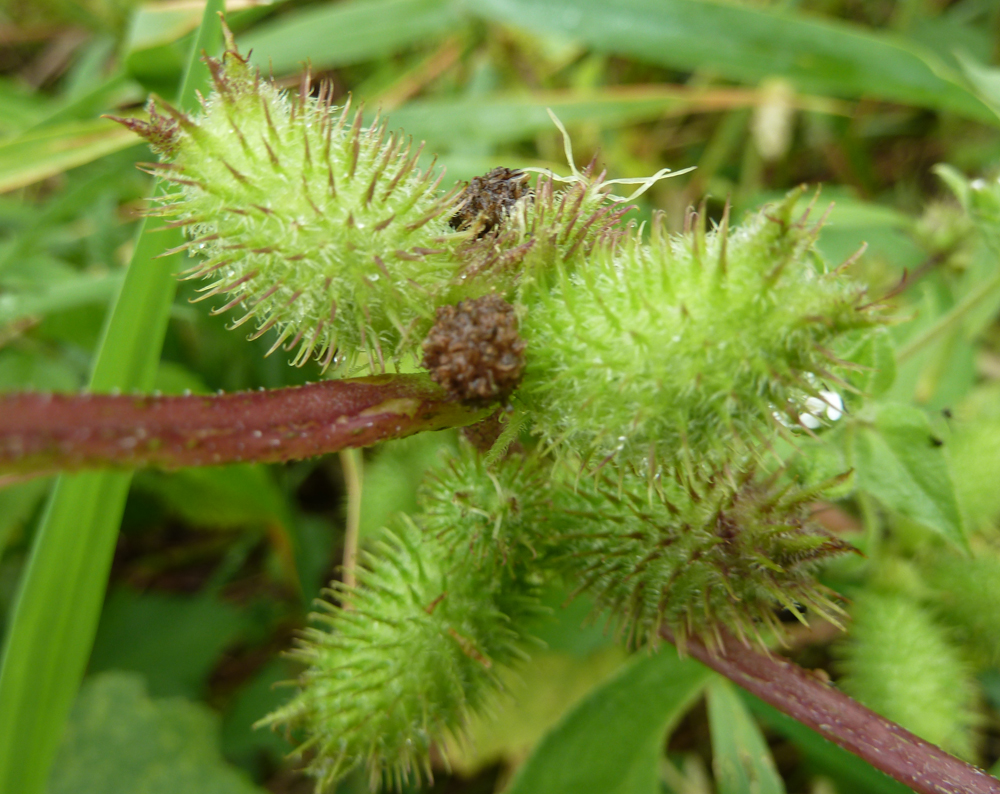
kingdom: Plantae
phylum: Tracheophyta
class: Magnoliopsida
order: Asterales
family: Asteraceae
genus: Xanthium
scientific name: Xanthium orientale
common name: Californian burr
